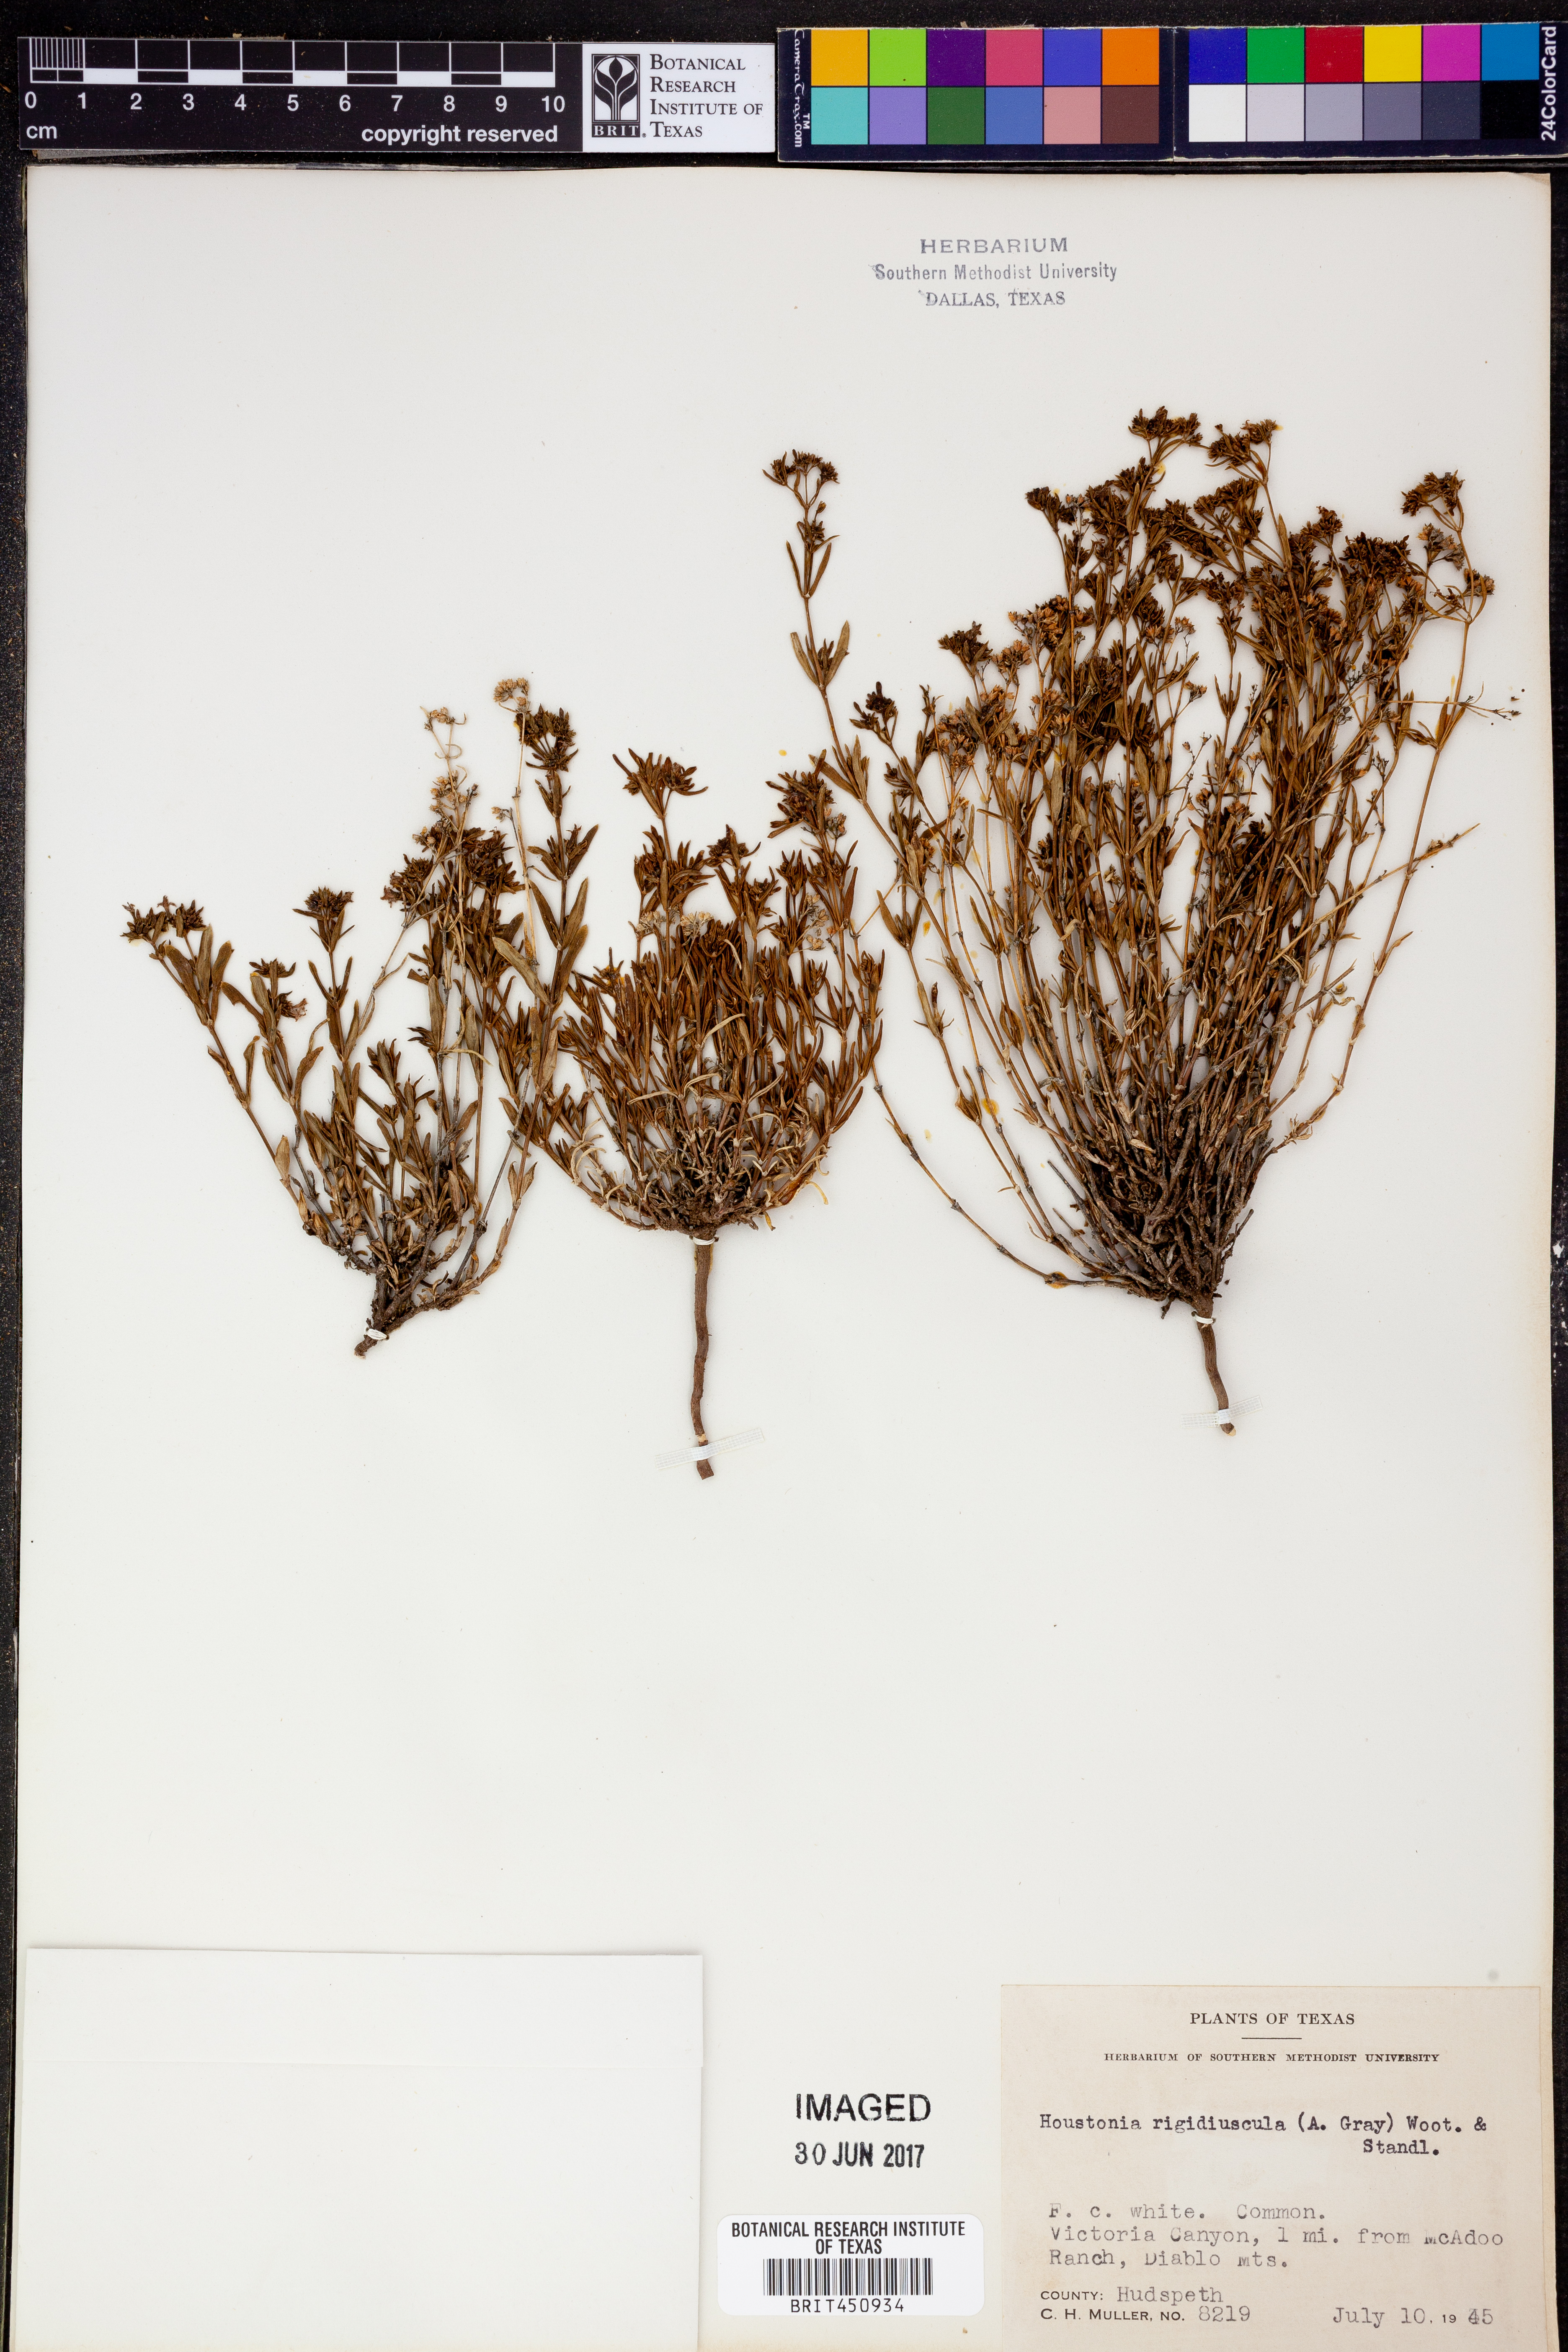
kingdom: Plantae
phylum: Tracheophyta
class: Magnoliopsida
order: Gentianales
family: Rubiaceae
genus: Houstonia
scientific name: Houstonia purpurea
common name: Summer bluet
